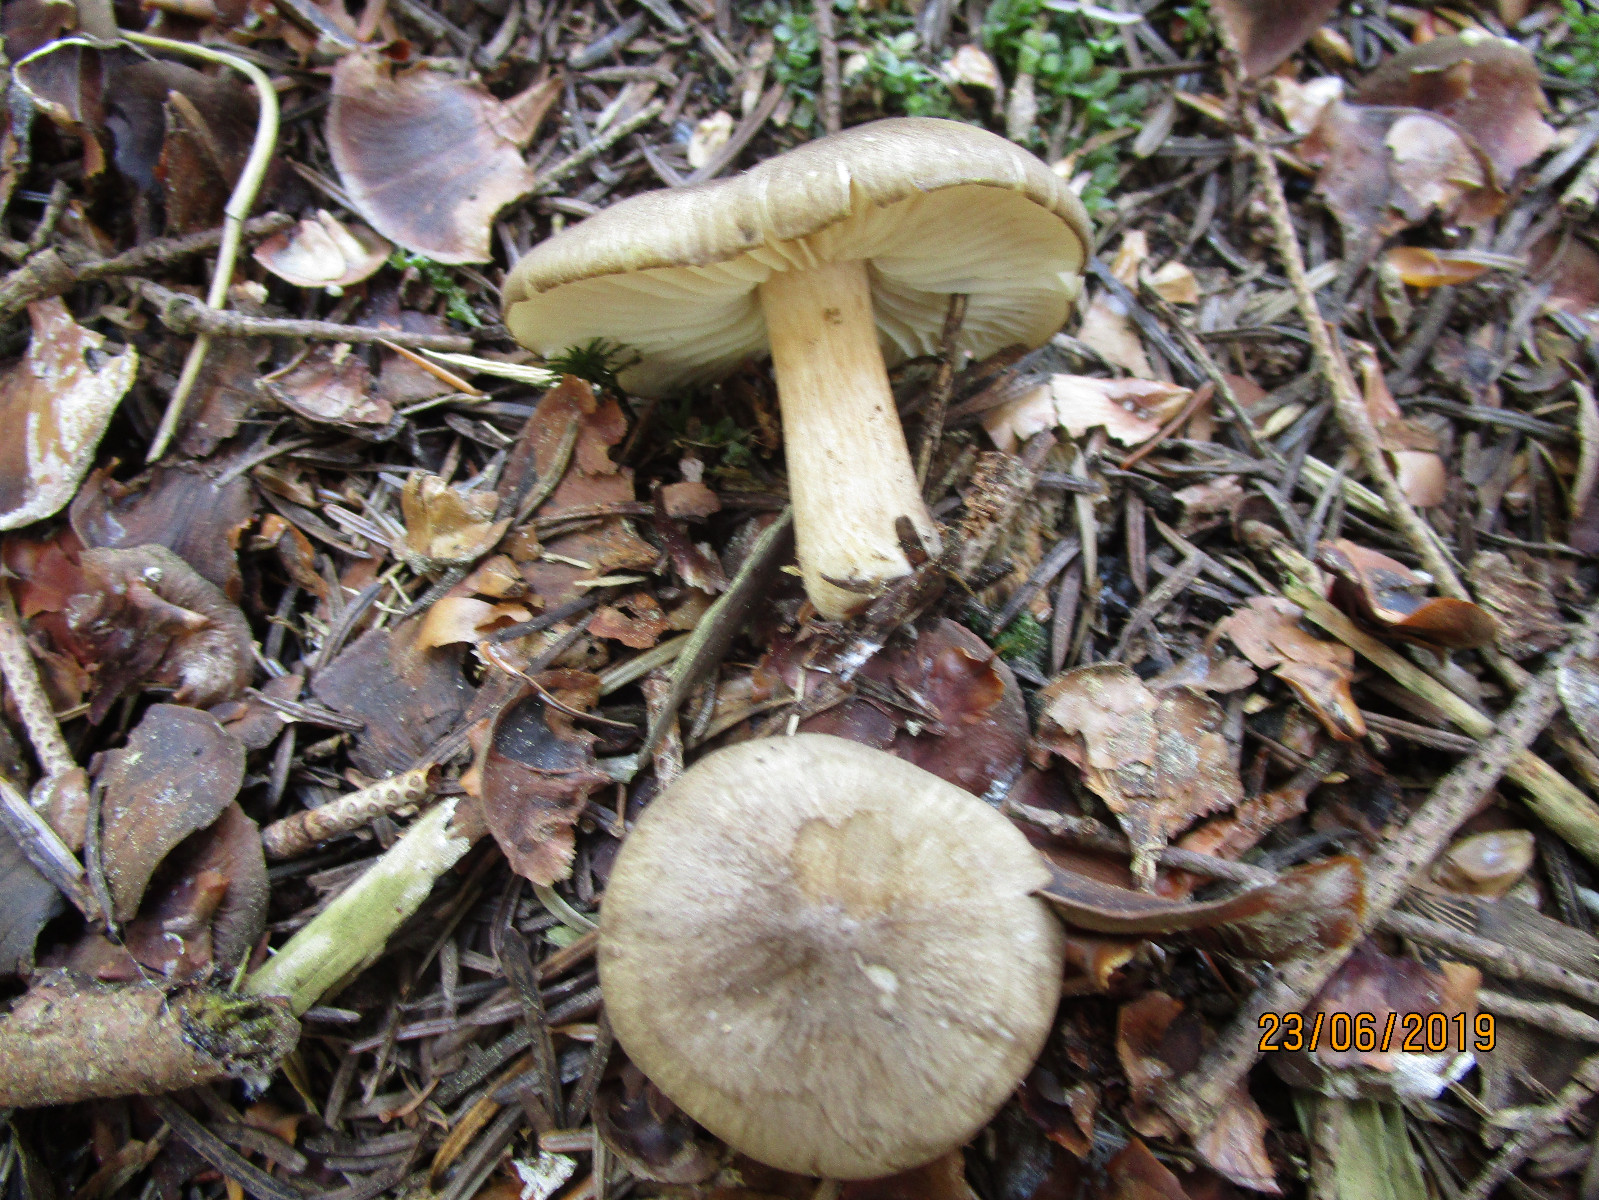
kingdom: Fungi
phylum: Basidiomycota
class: Agaricomycetes
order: Agaricales
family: Tricholomataceae
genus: Megacollybia
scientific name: Megacollybia platyphylla
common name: bredbladet væbnerhat
